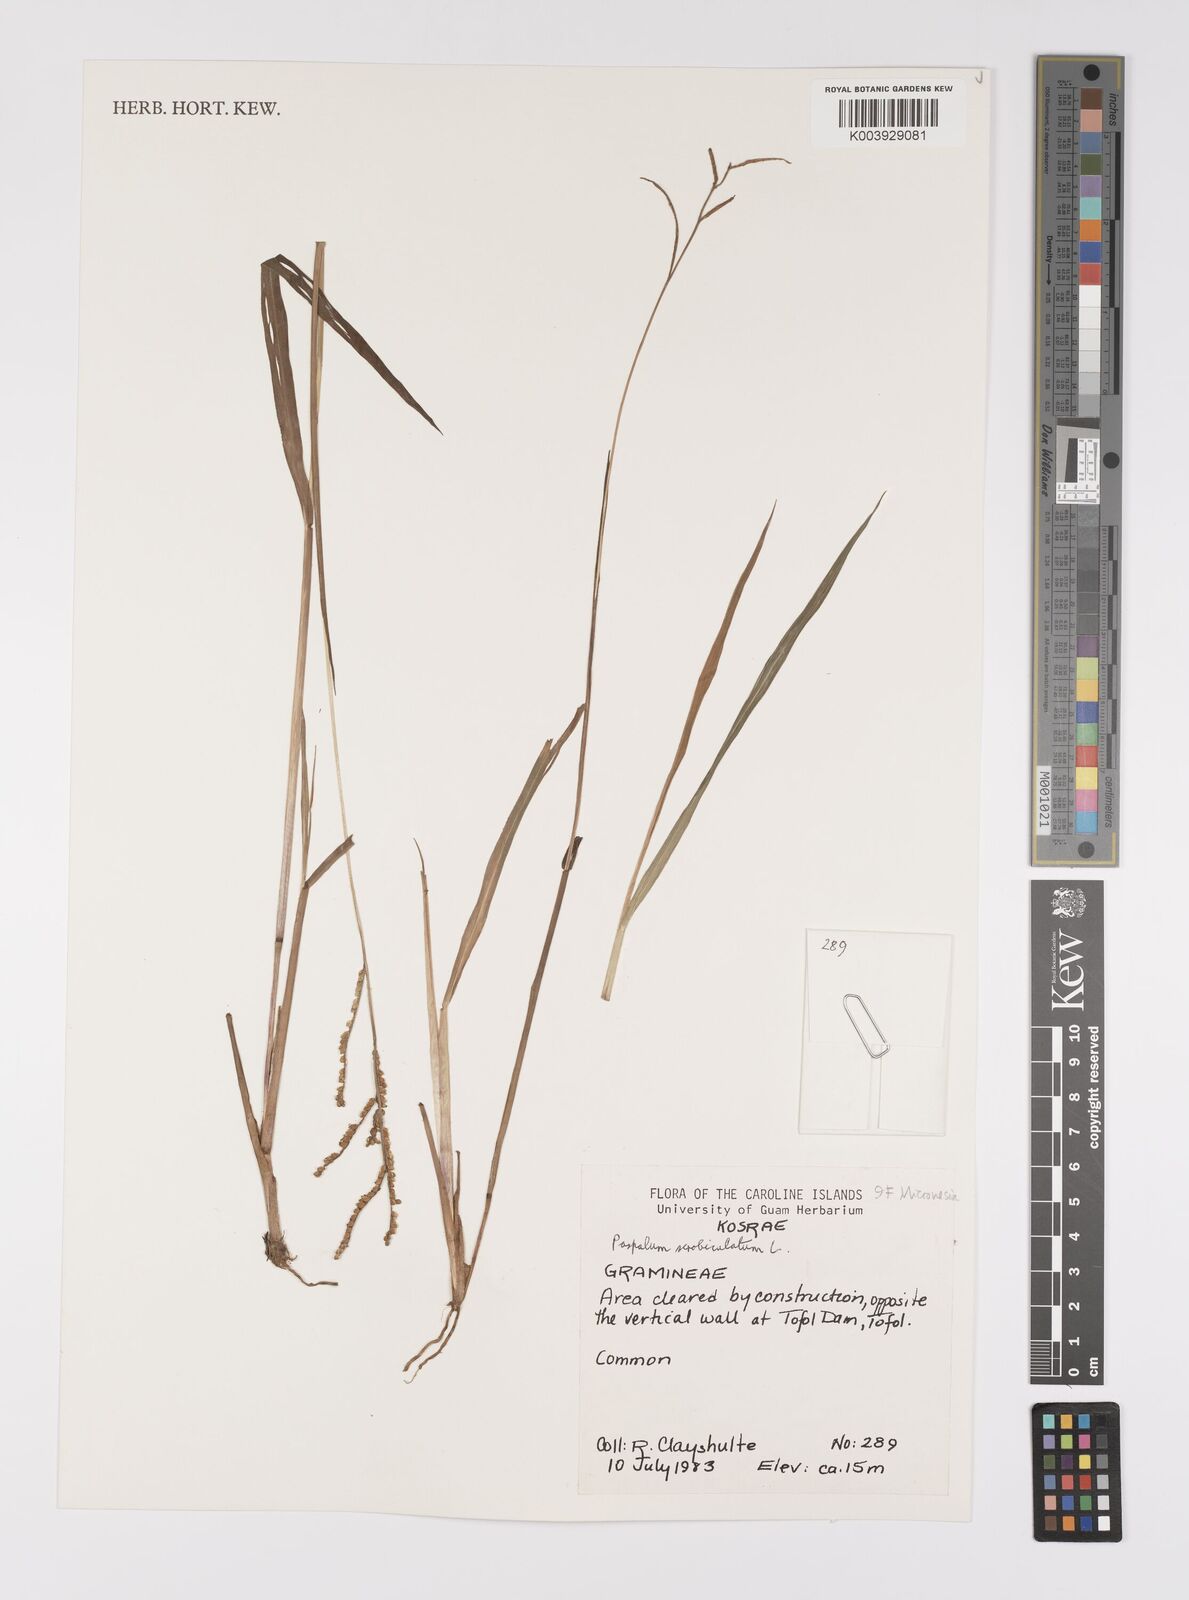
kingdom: Plantae
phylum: Tracheophyta
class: Liliopsida
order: Poales
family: Poaceae
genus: Paspalum
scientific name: Paspalum scrobiculatum
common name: Kodo millet
